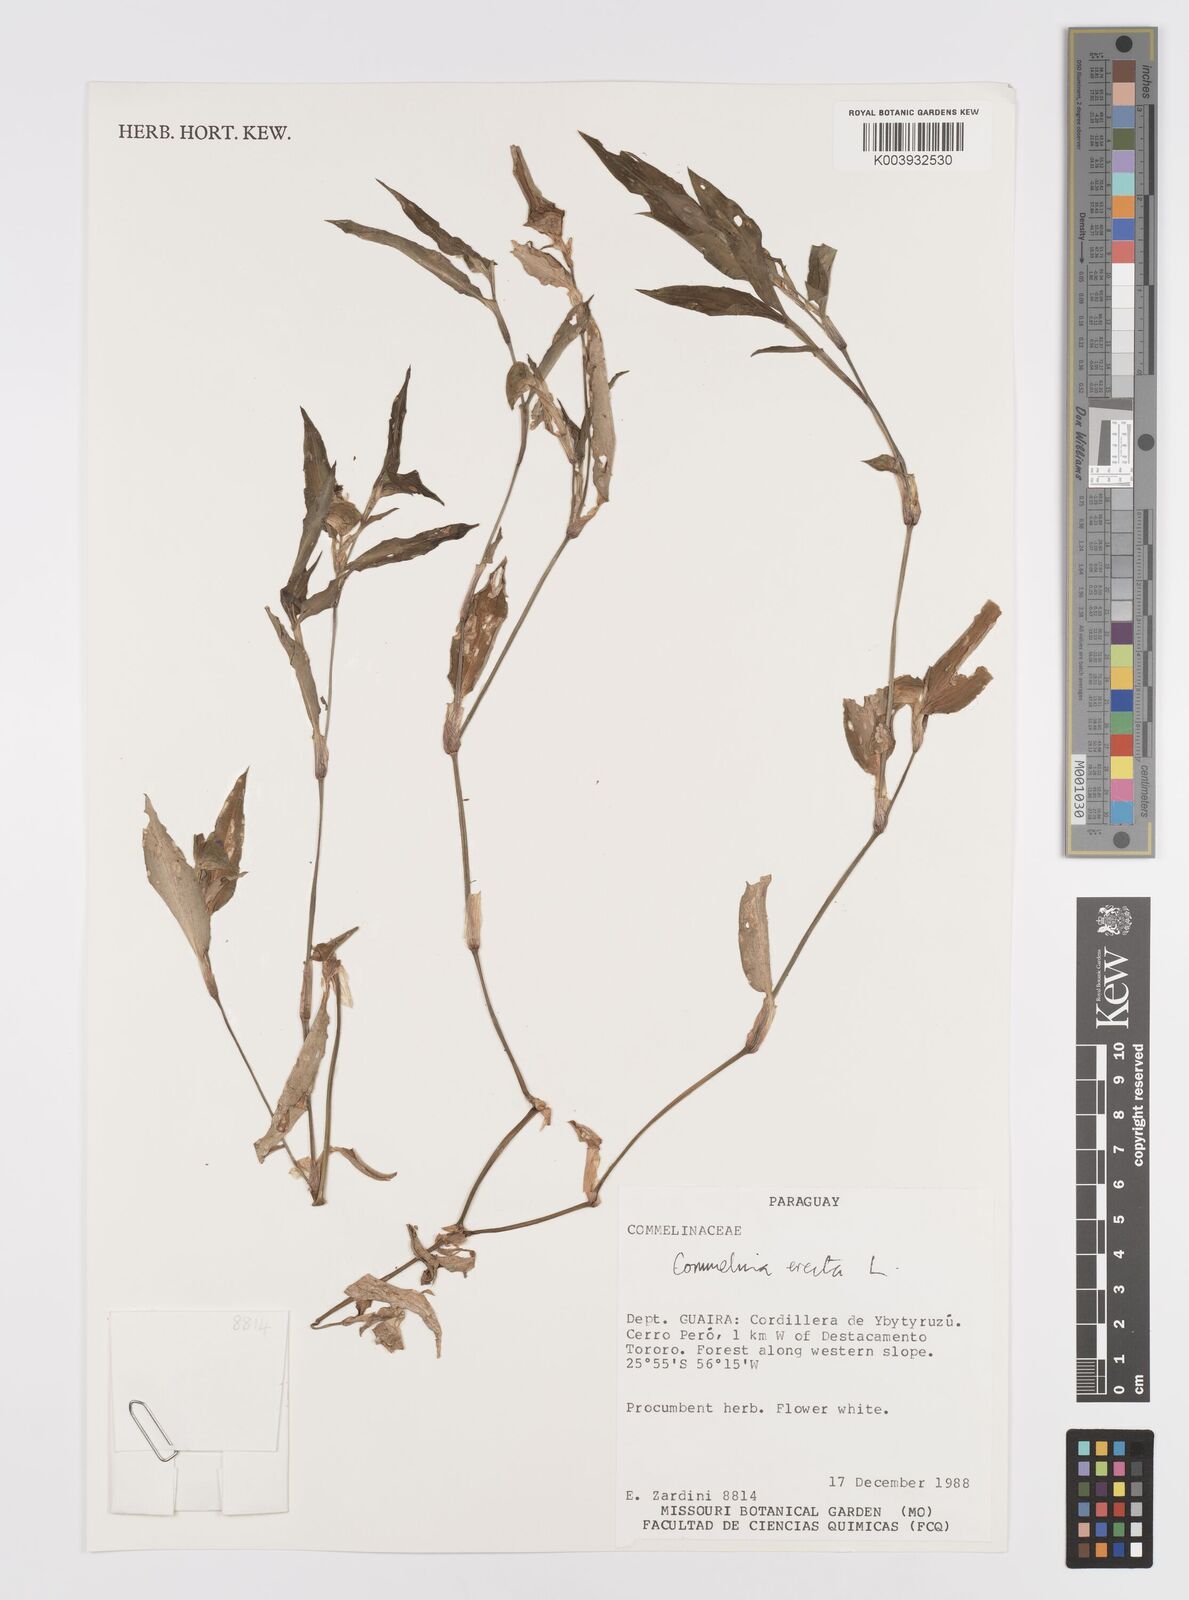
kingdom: Plantae
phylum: Tracheophyta
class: Liliopsida
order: Commelinales
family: Commelinaceae
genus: Commelina
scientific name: Commelina erecta
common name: Blousel blommetjie
